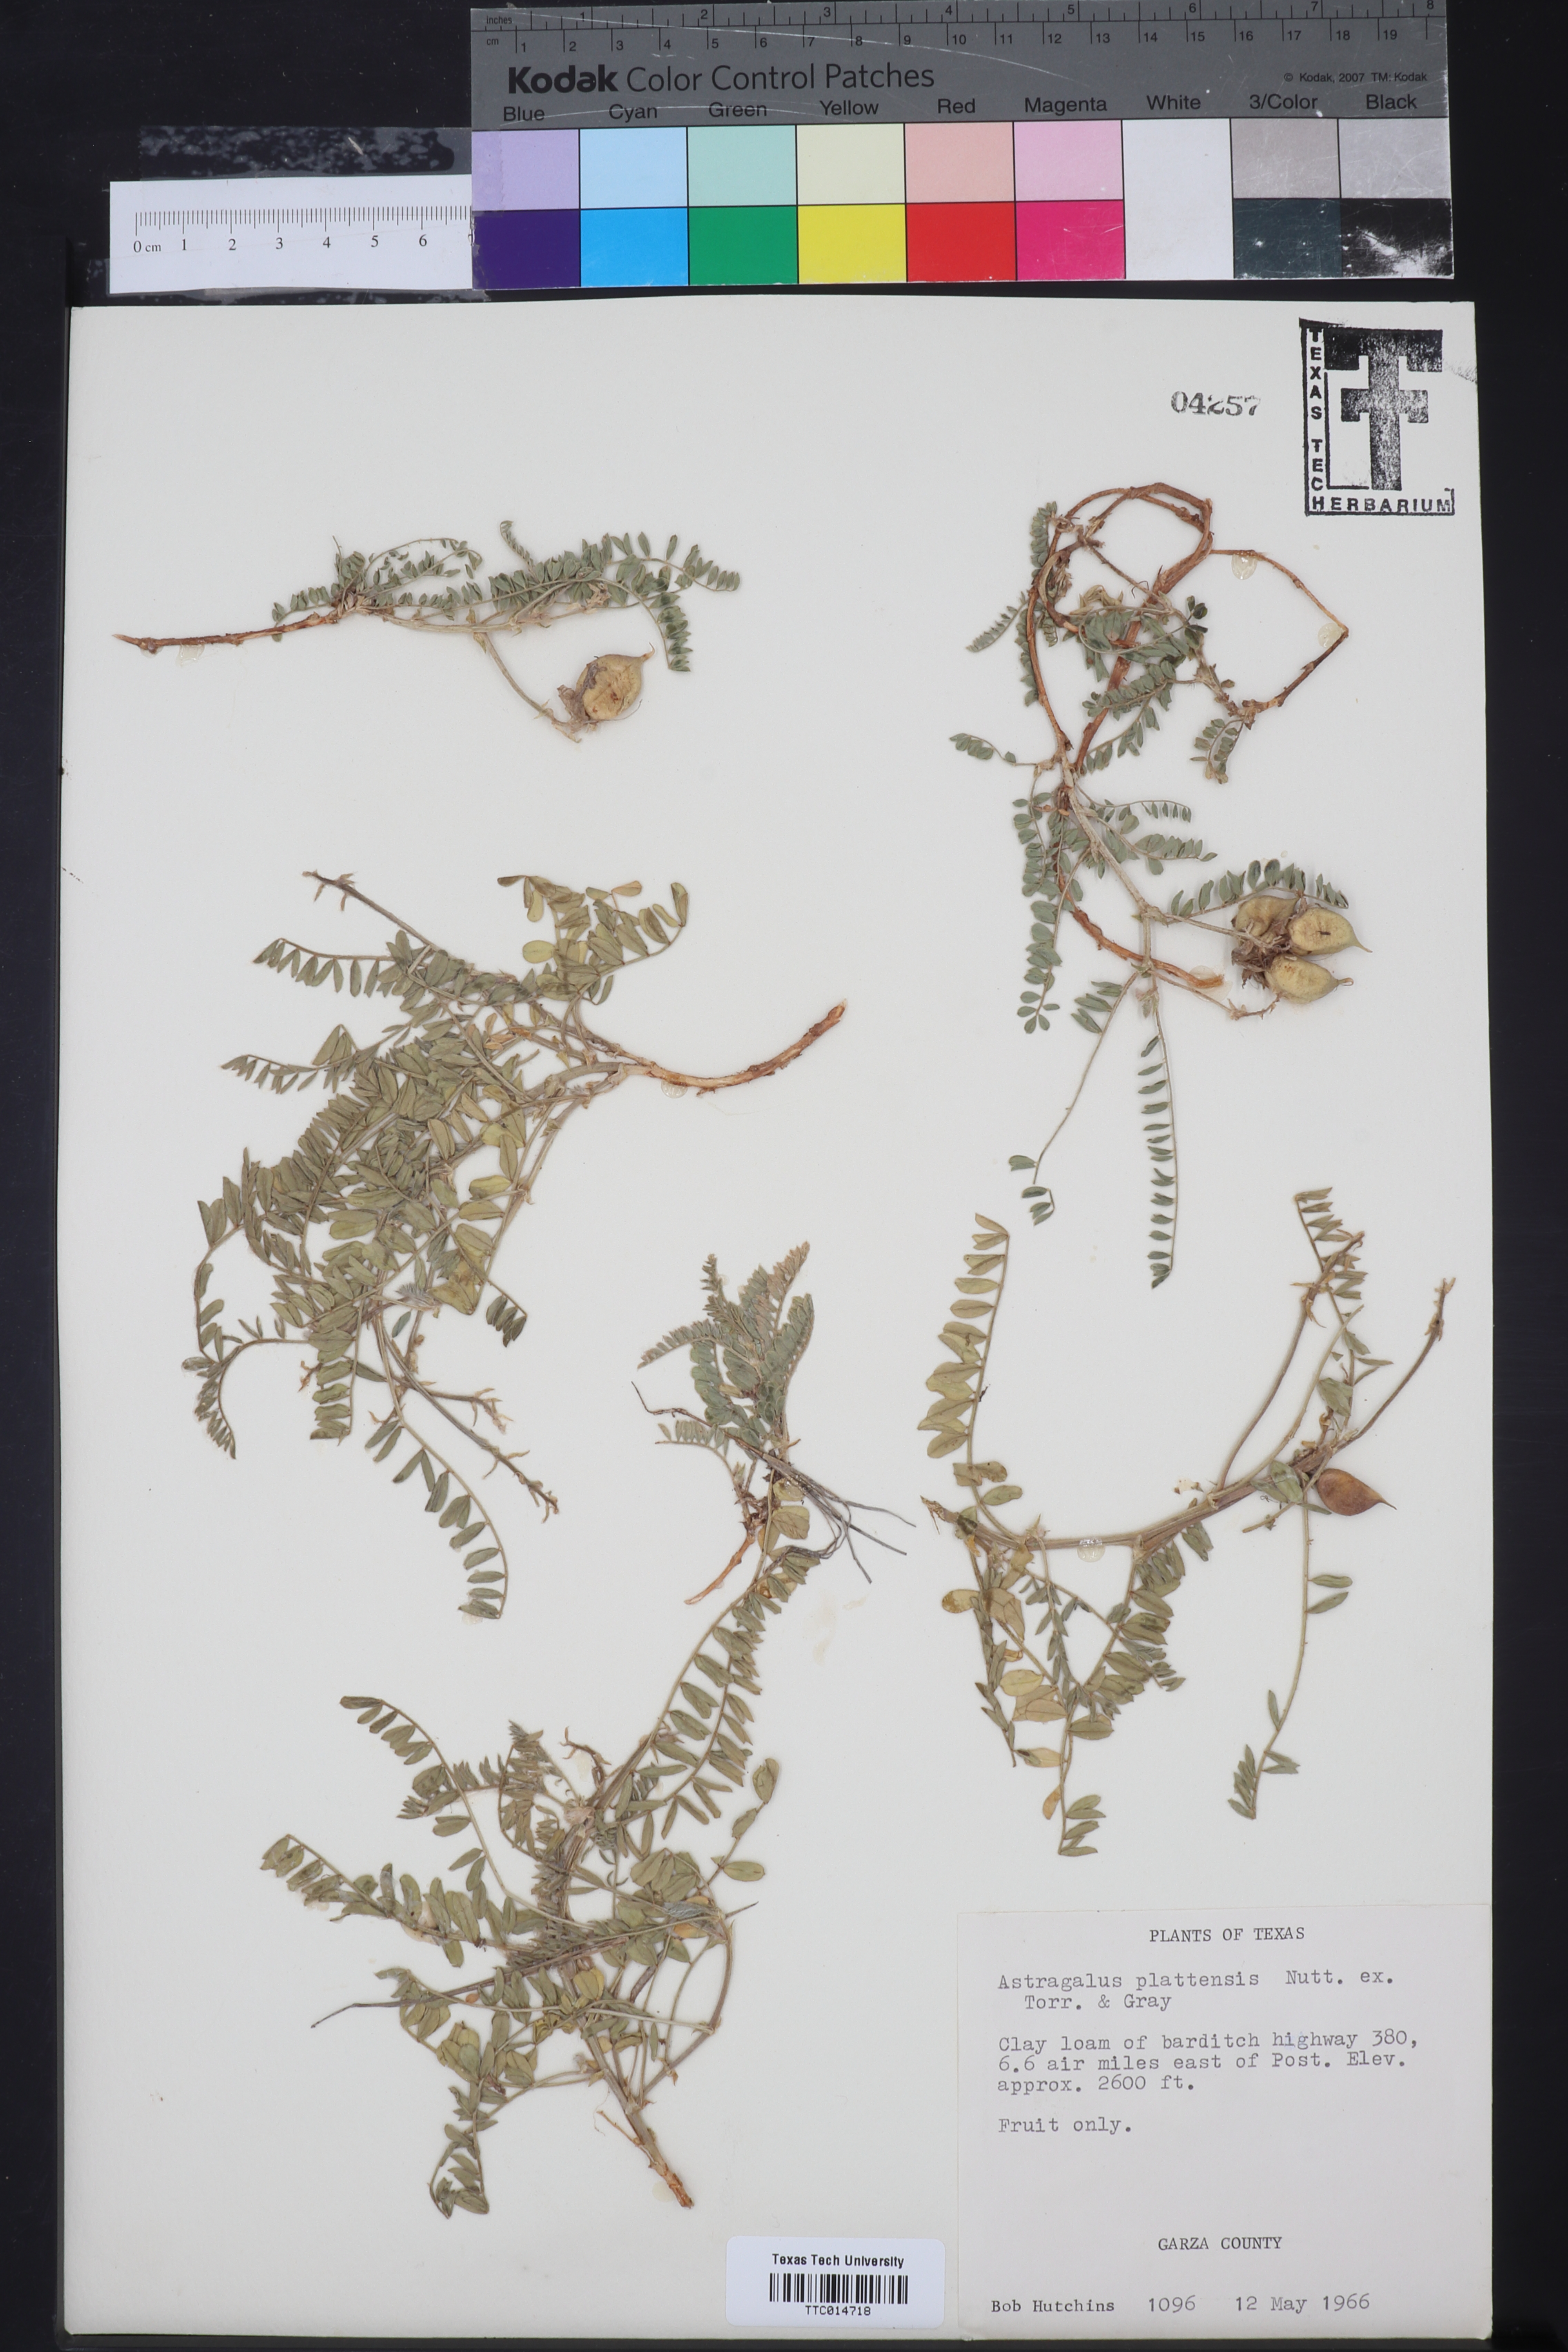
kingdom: Plantae
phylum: Tracheophyta
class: Magnoliopsida
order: Fabales
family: Fabaceae
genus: Astragalus
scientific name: Astragalus plattensis
